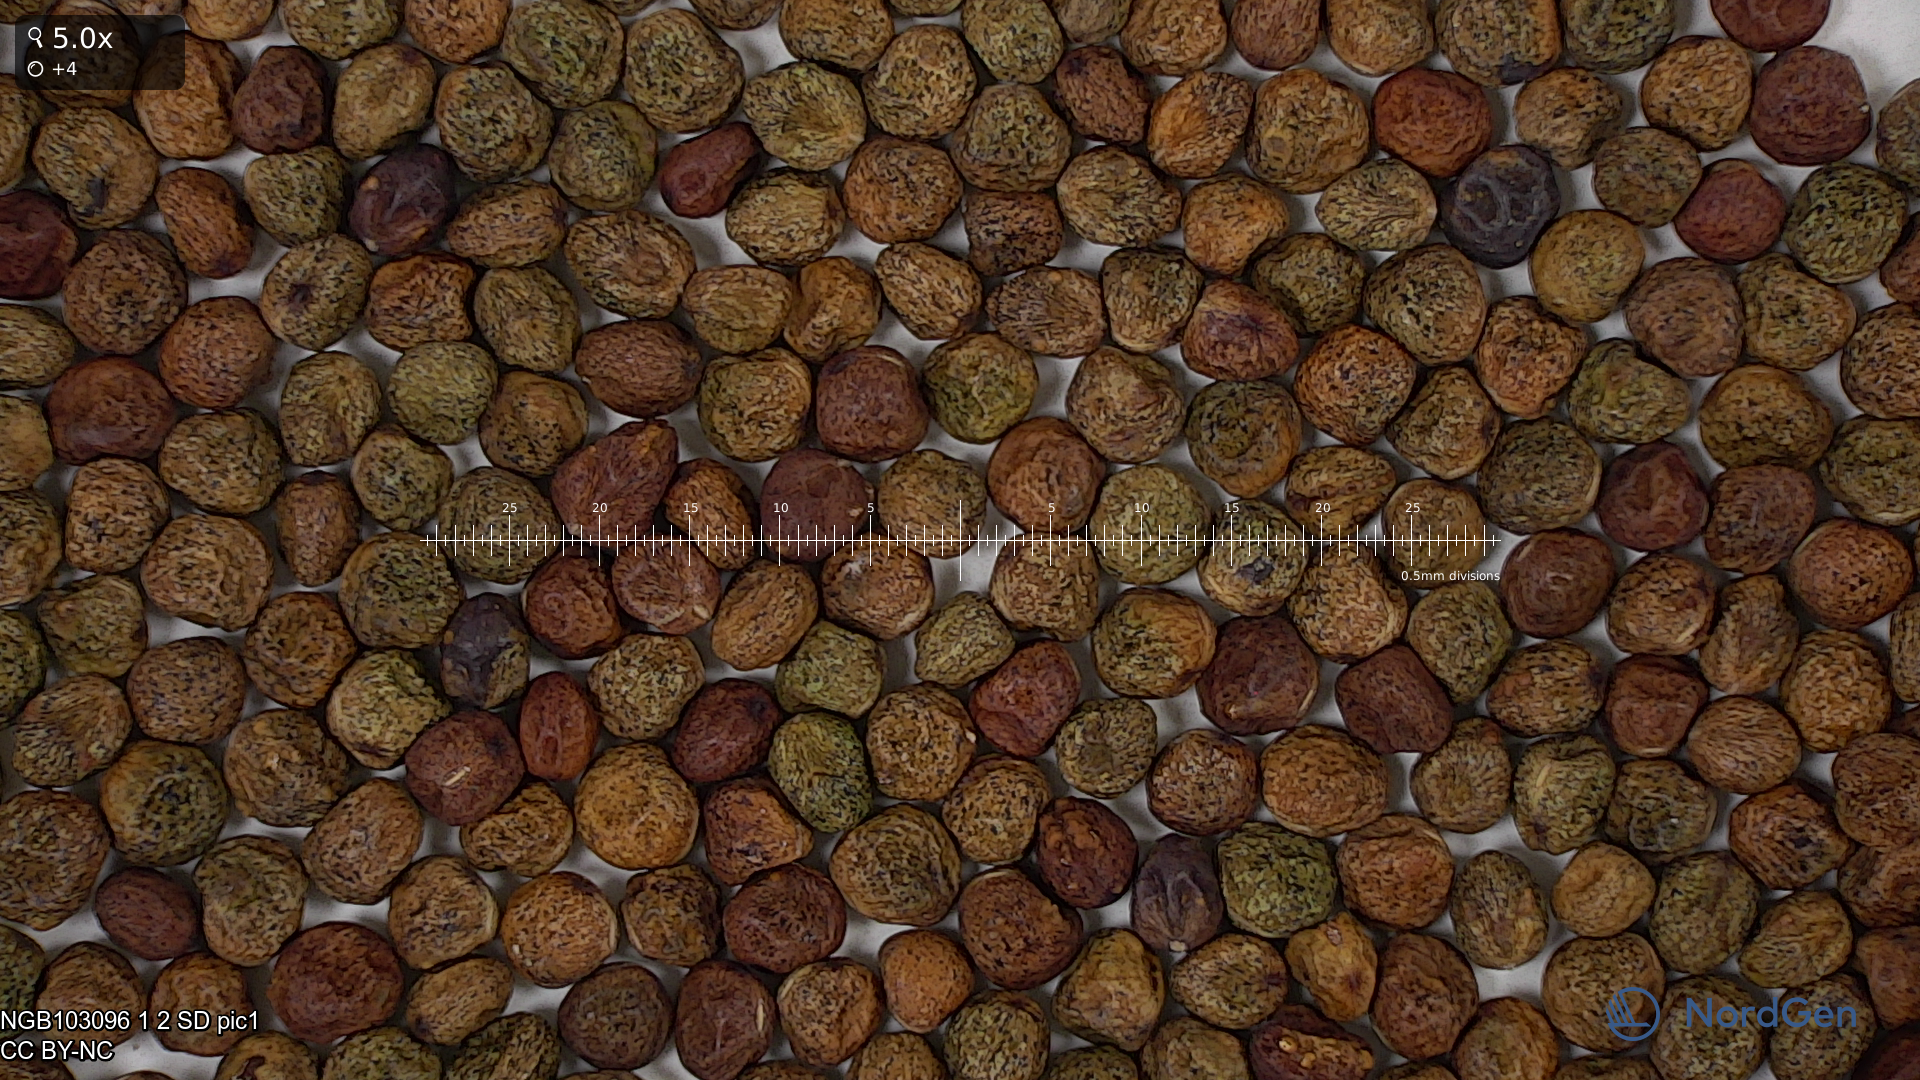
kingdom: Plantae
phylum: Tracheophyta
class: Magnoliopsida
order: Fabales
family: Fabaceae
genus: Lathyrus
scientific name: Lathyrus oleraceus
